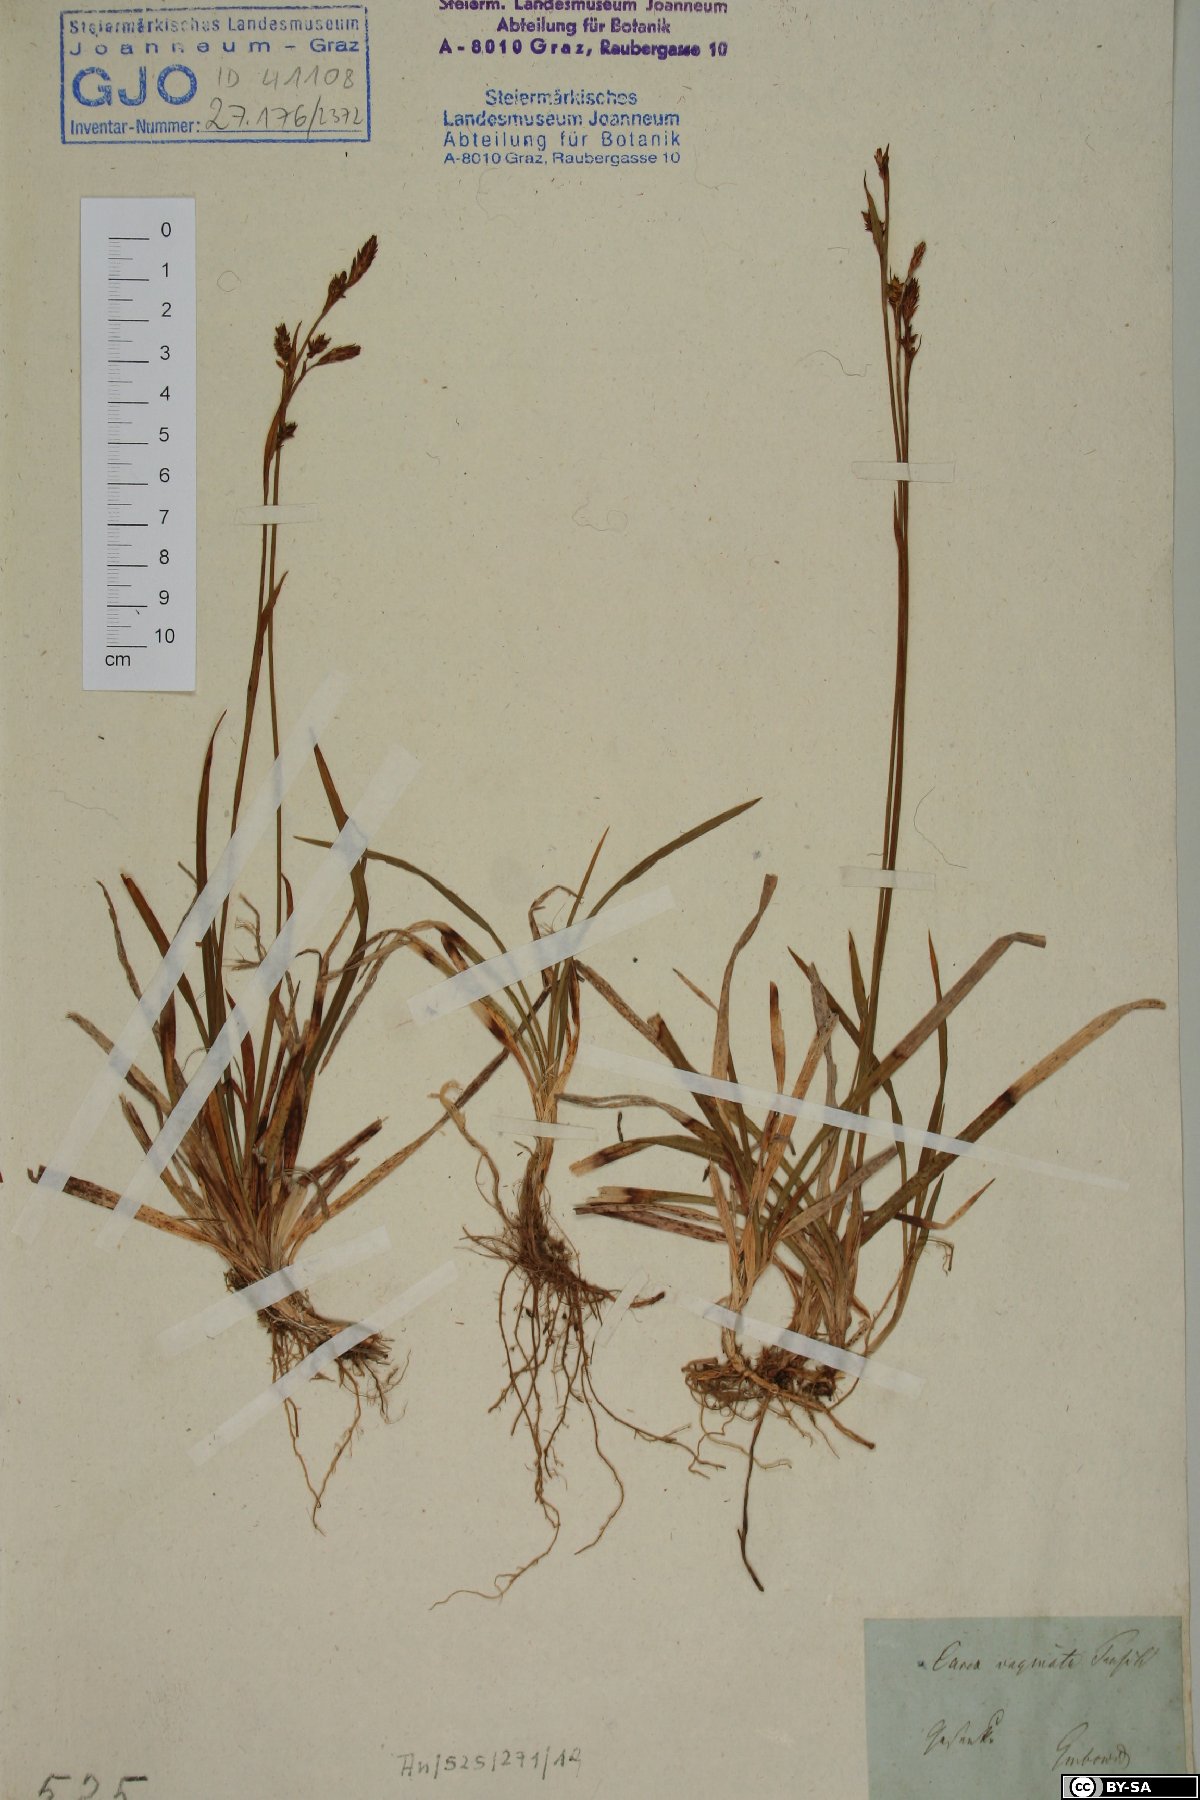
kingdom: Plantae
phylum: Tracheophyta
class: Liliopsida
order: Poales
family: Cyperaceae
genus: Carex
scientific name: Carex vaginata
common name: Sheathed sedge
